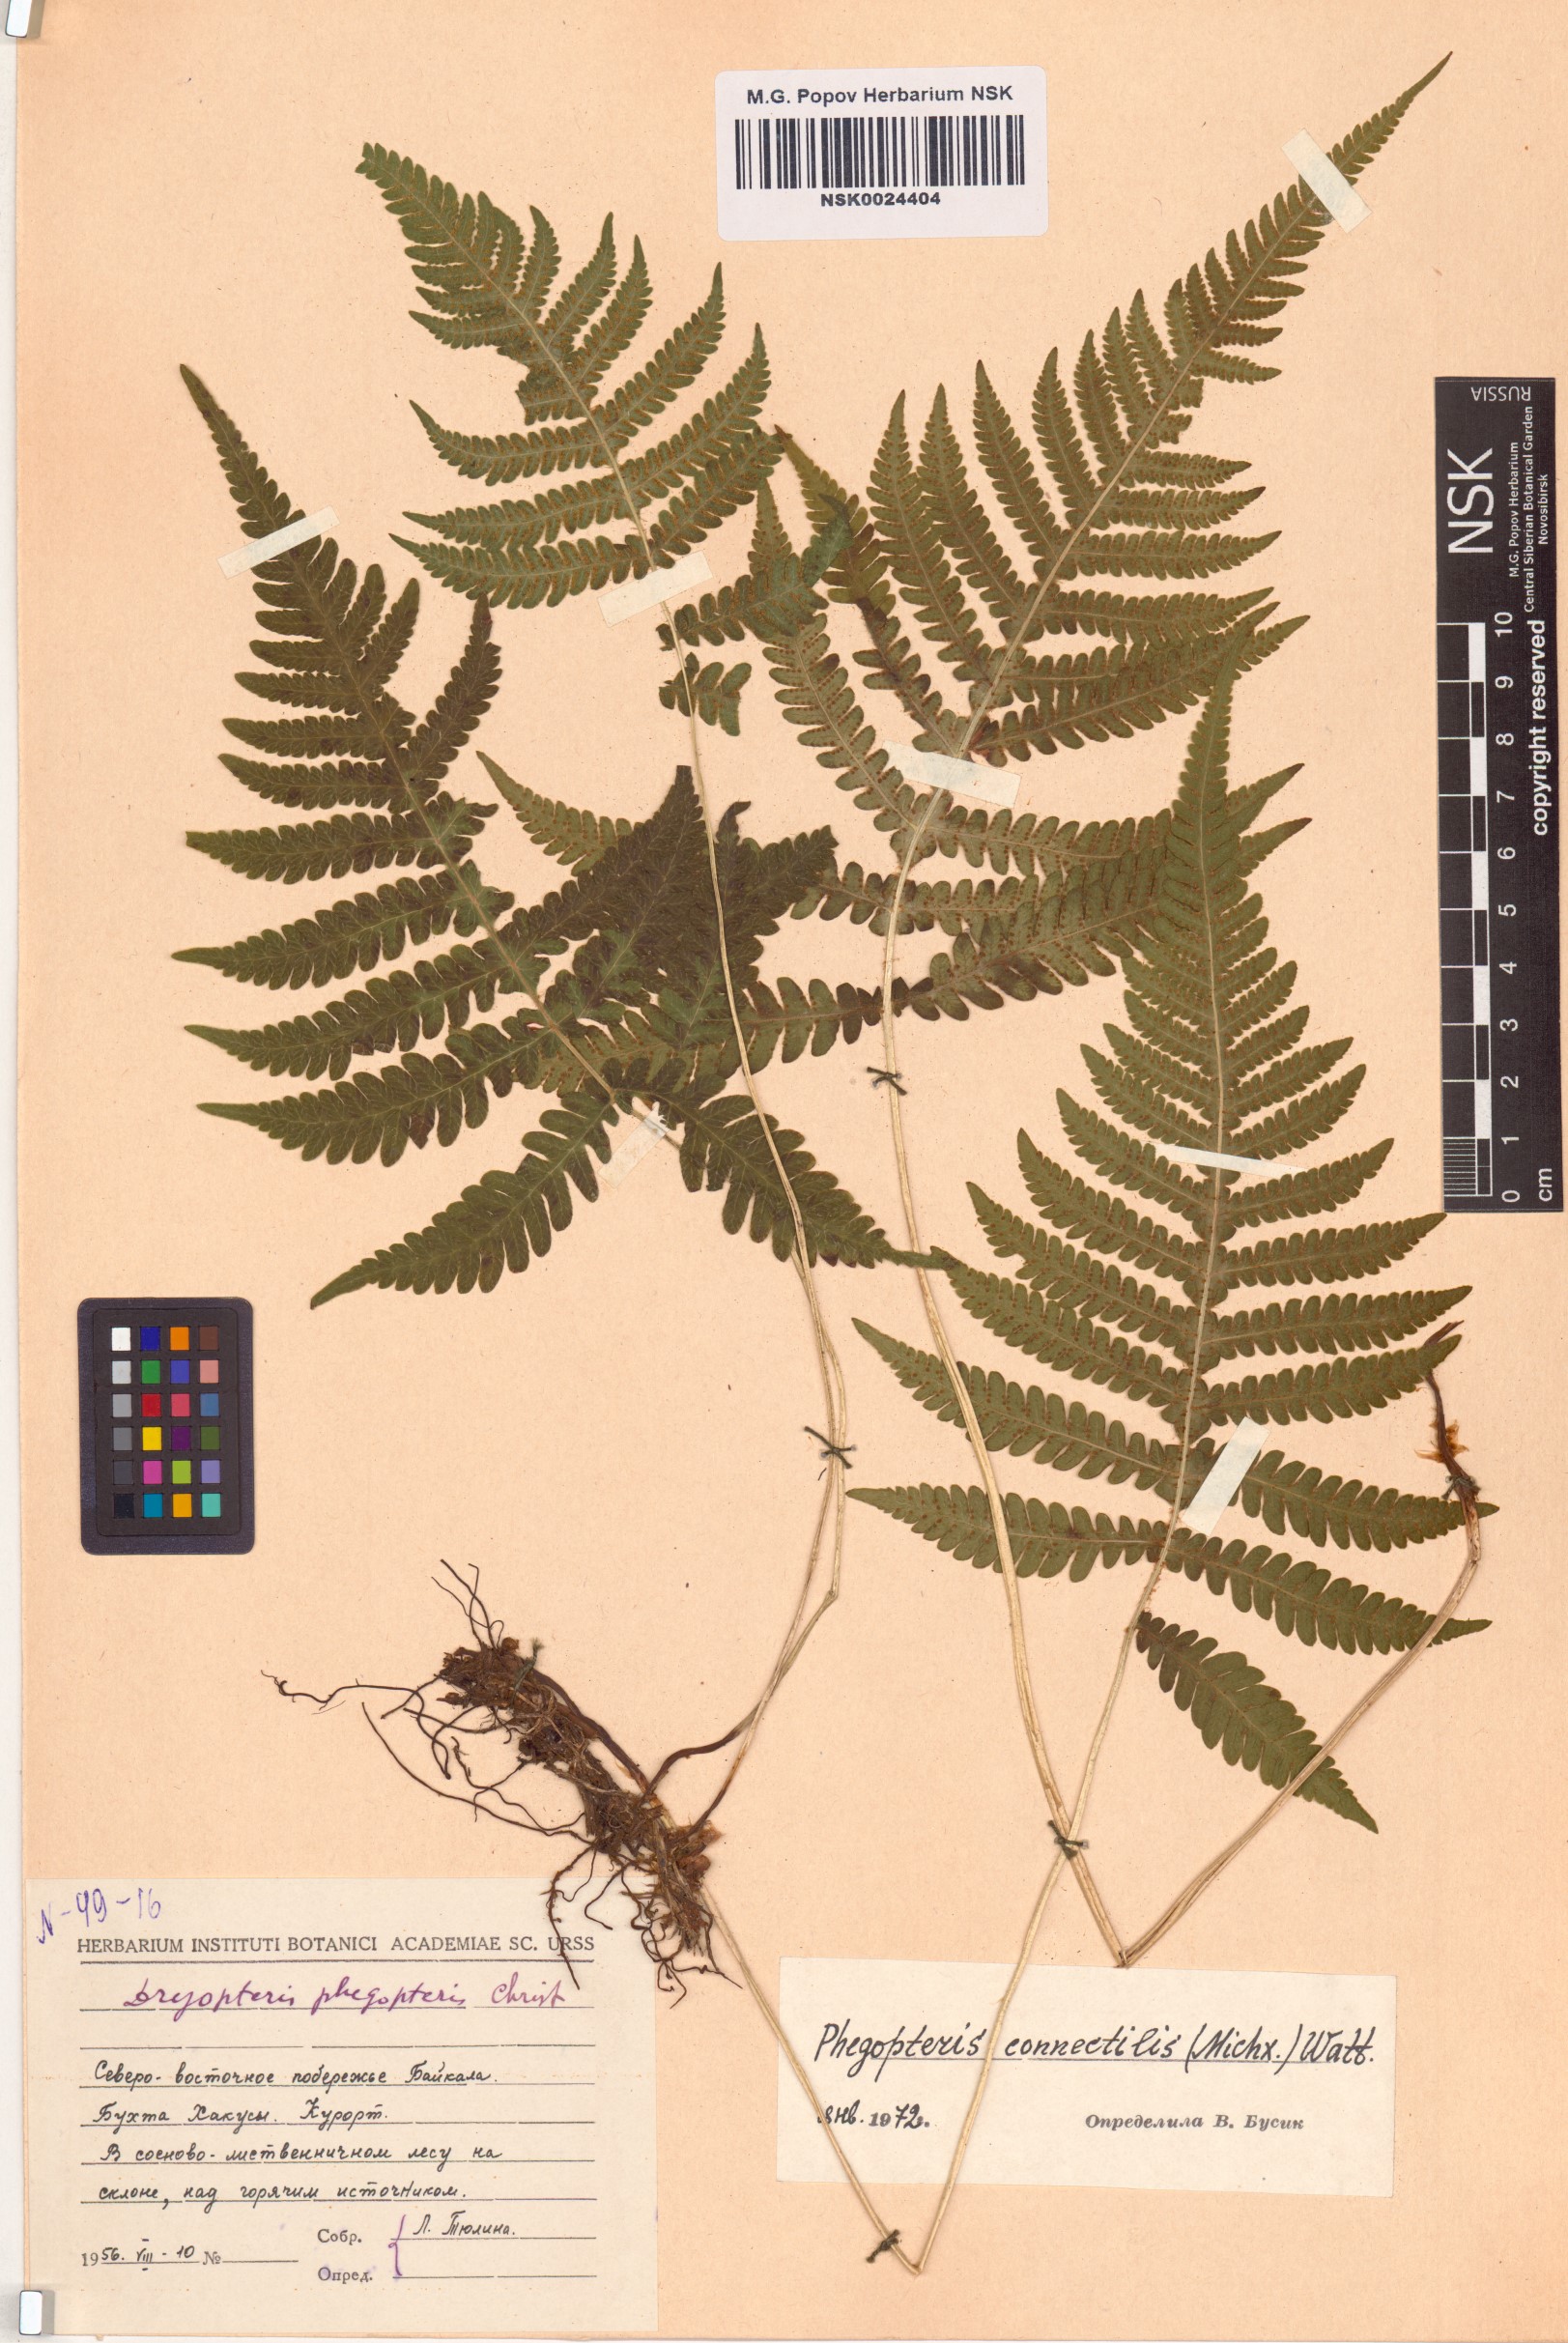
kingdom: Plantae
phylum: Tracheophyta
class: Polypodiopsida
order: Polypodiales
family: Thelypteridaceae
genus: Phegopteris
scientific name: Phegopteris connectilis
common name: Beech fern
